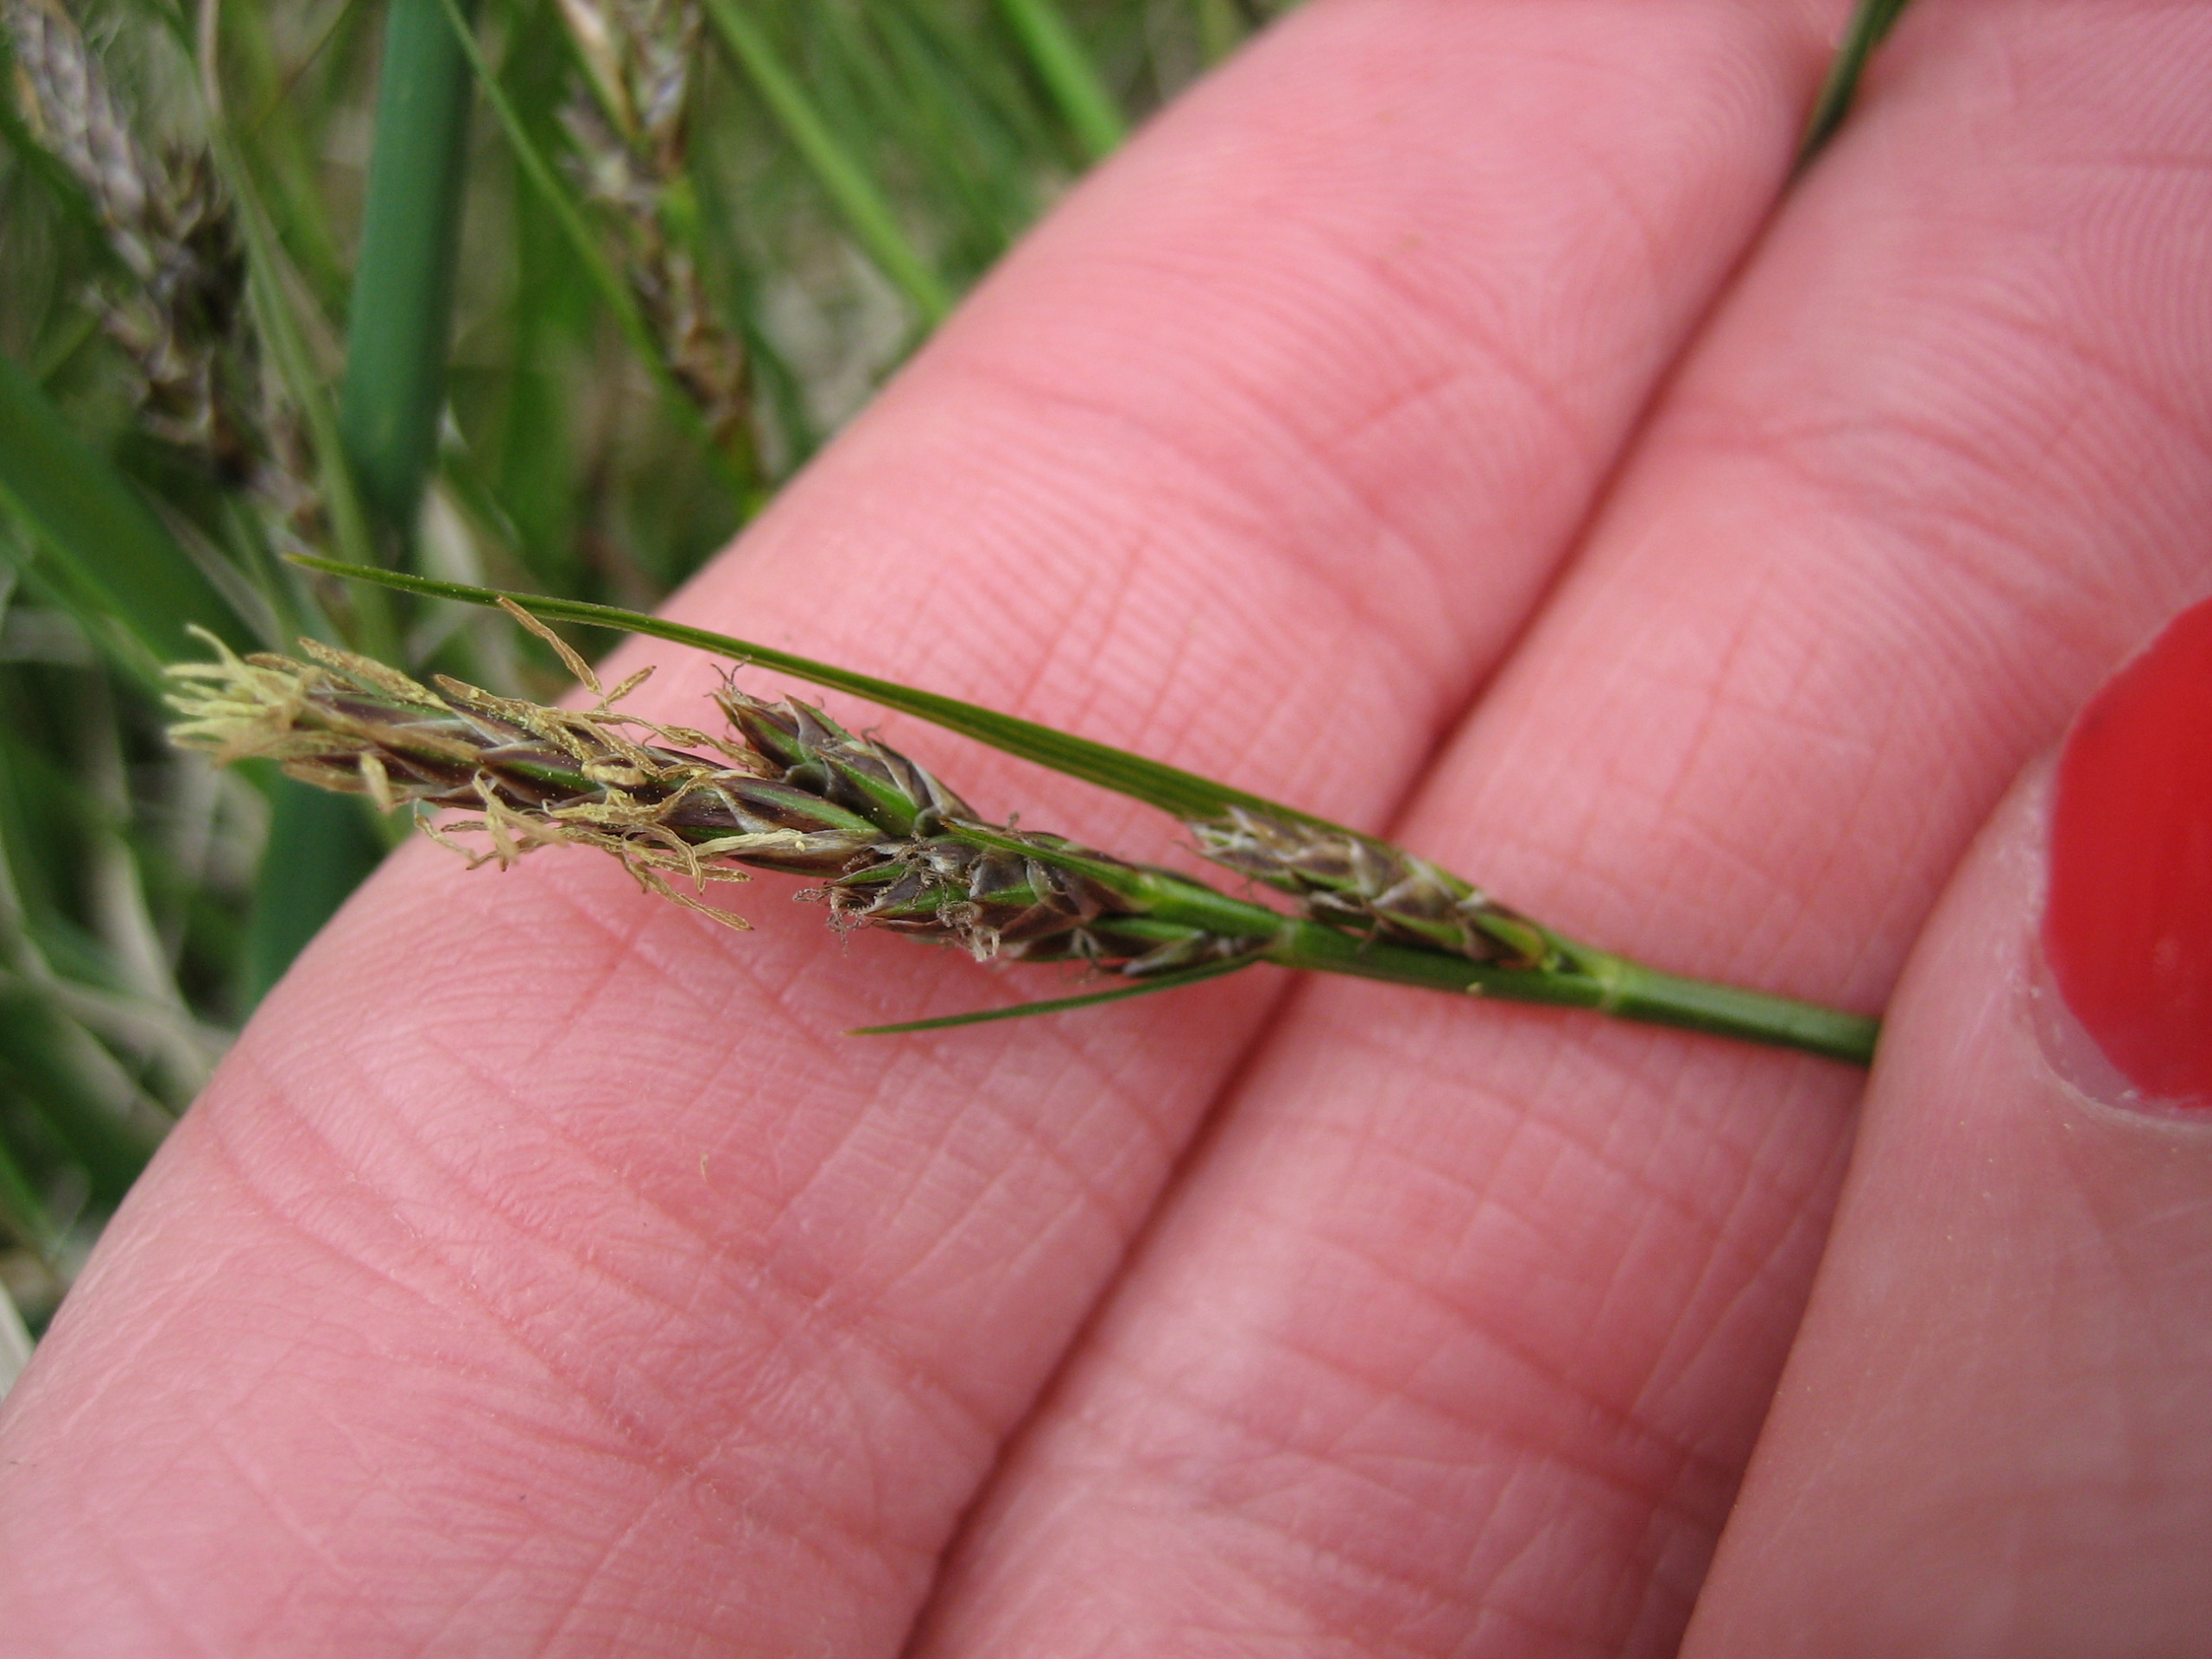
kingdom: Plantae
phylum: Tracheophyta
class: Liliopsida
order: Poales
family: Cyperaceae
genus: Carex
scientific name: Carex pilulifera
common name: Pille-star
